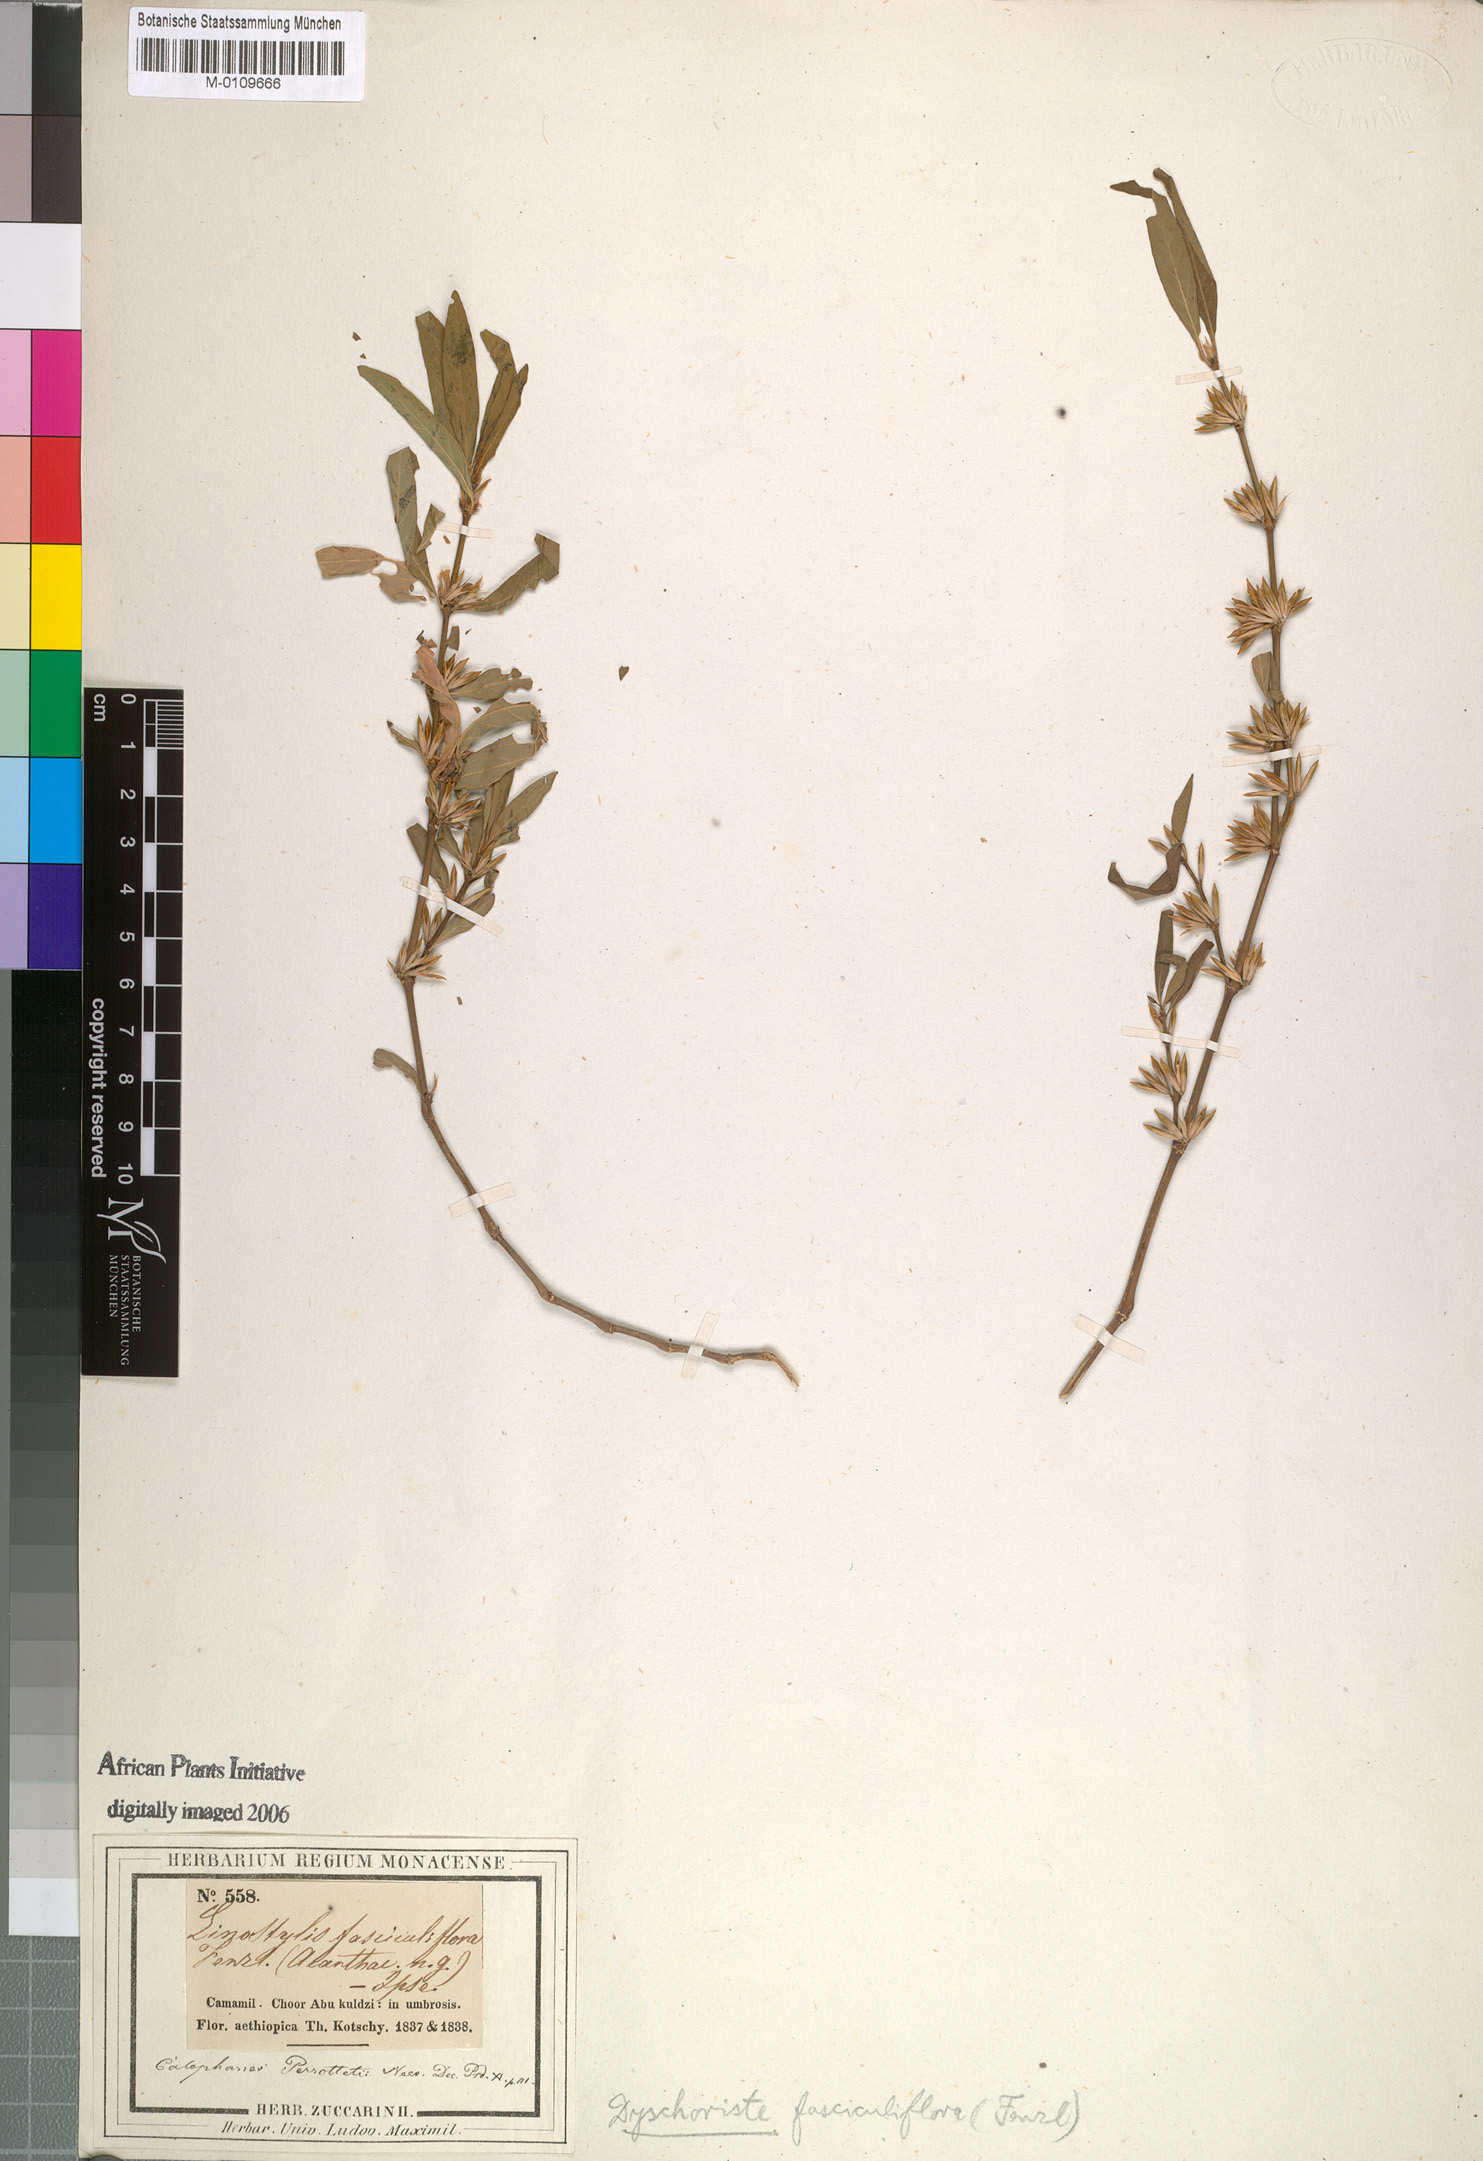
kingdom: Plantae
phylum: Tracheophyta
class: Magnoliopsida
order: Lamiales
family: Acanthaceae
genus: Dyschoriste
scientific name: Dyschoriste nagchana
